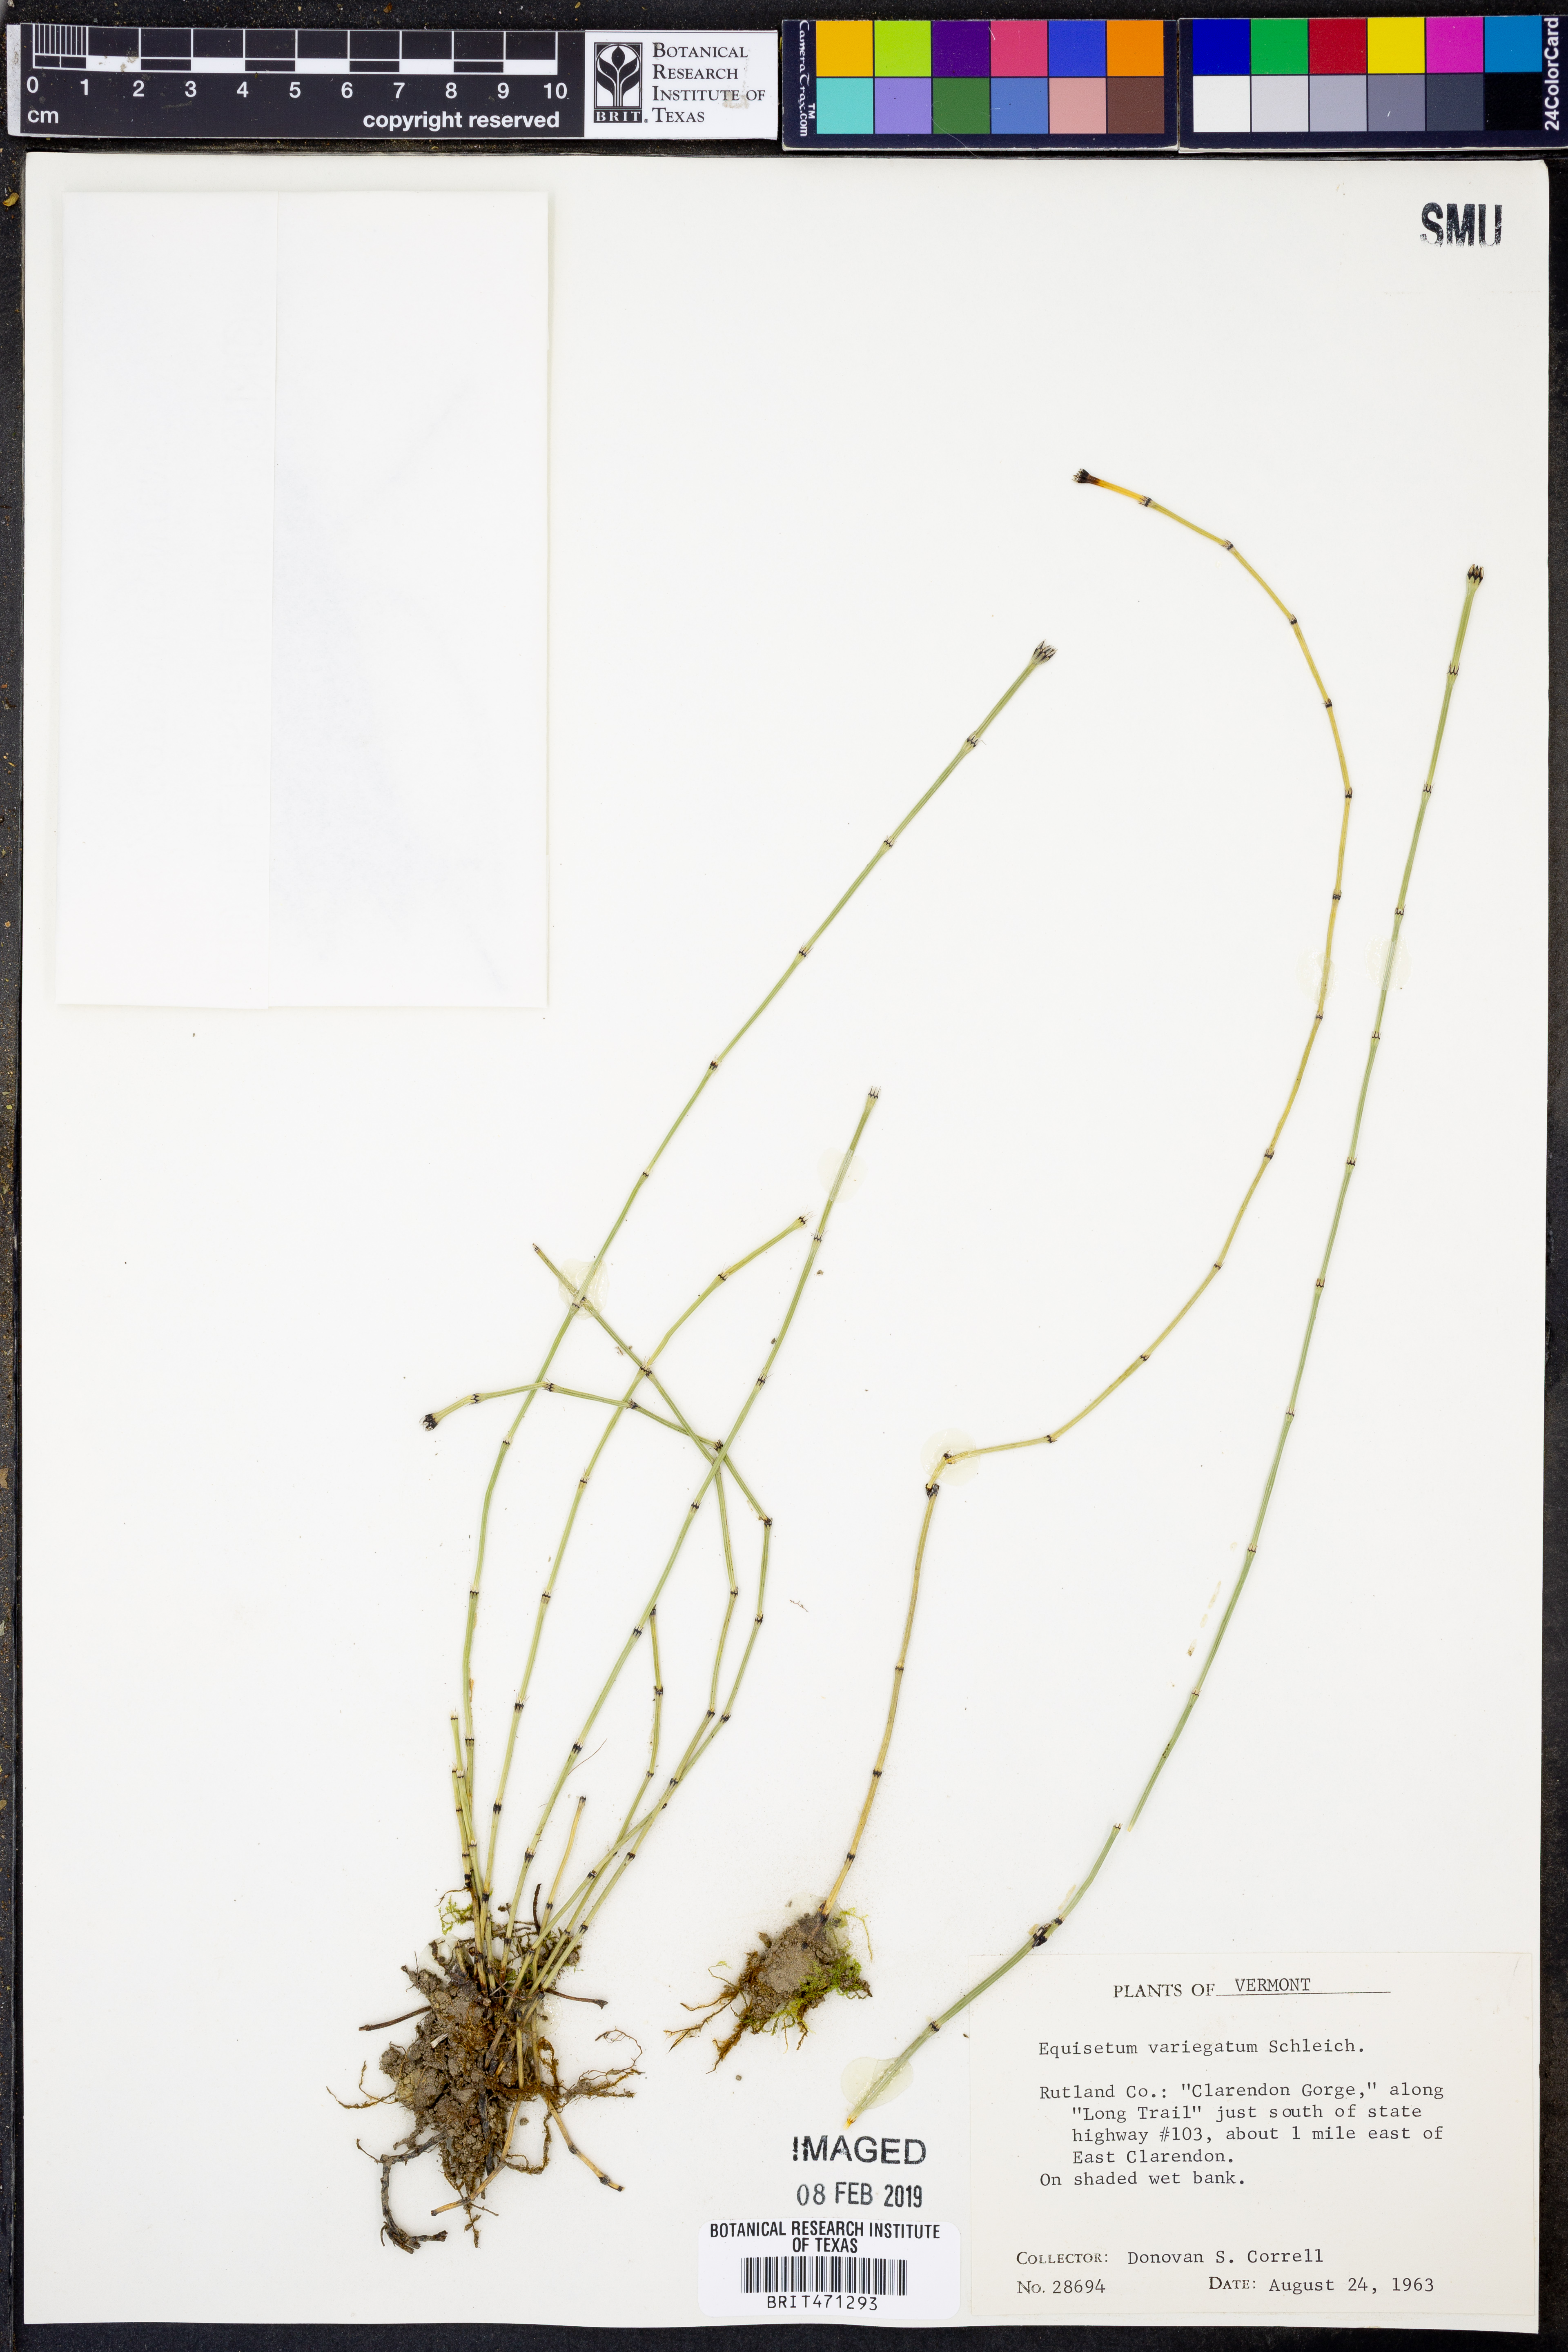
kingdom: Plantae
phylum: Tracheophyta
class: Polypodiopsida
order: Equisetales
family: Equisetaceae
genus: Equisetum
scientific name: Equisetum variegatum
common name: Variegated horsetail
